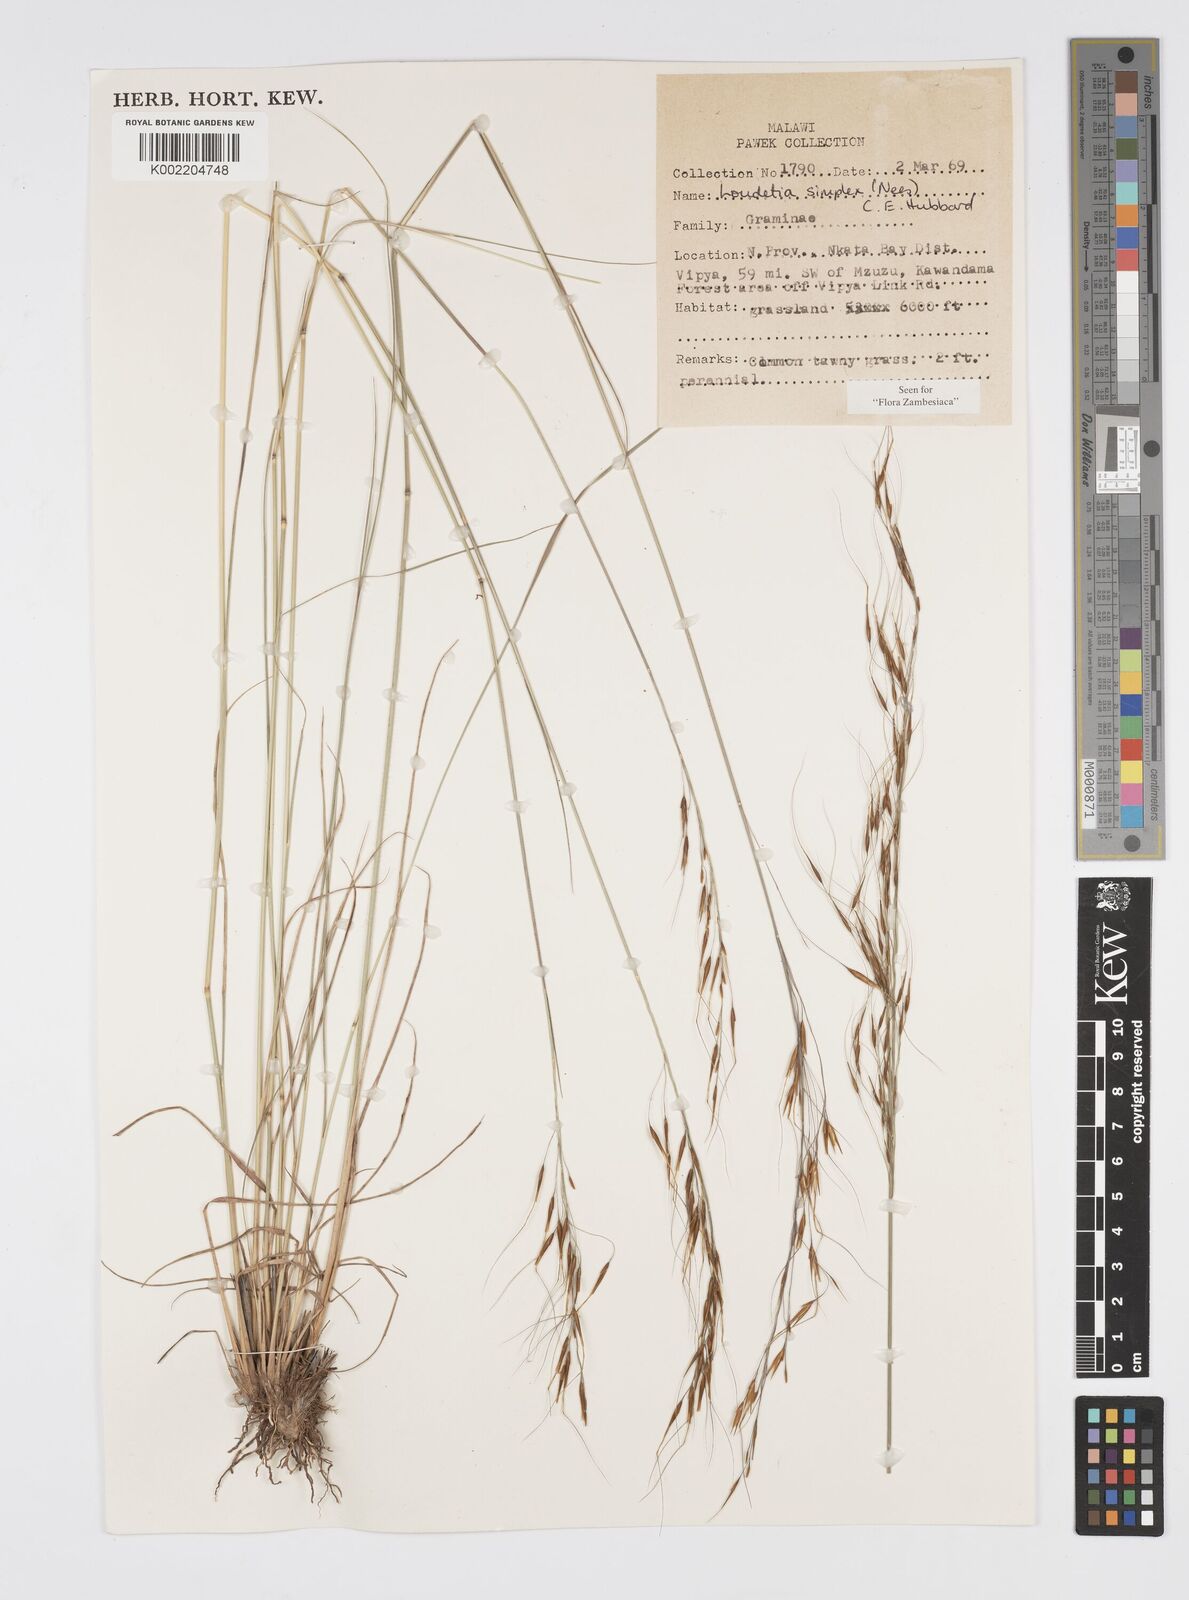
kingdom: Plantae
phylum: Tracheophyta
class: Liliopsida
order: Poales
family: Poaceae
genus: Loudetia
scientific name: Loudetia simplex
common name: Common russet grass
